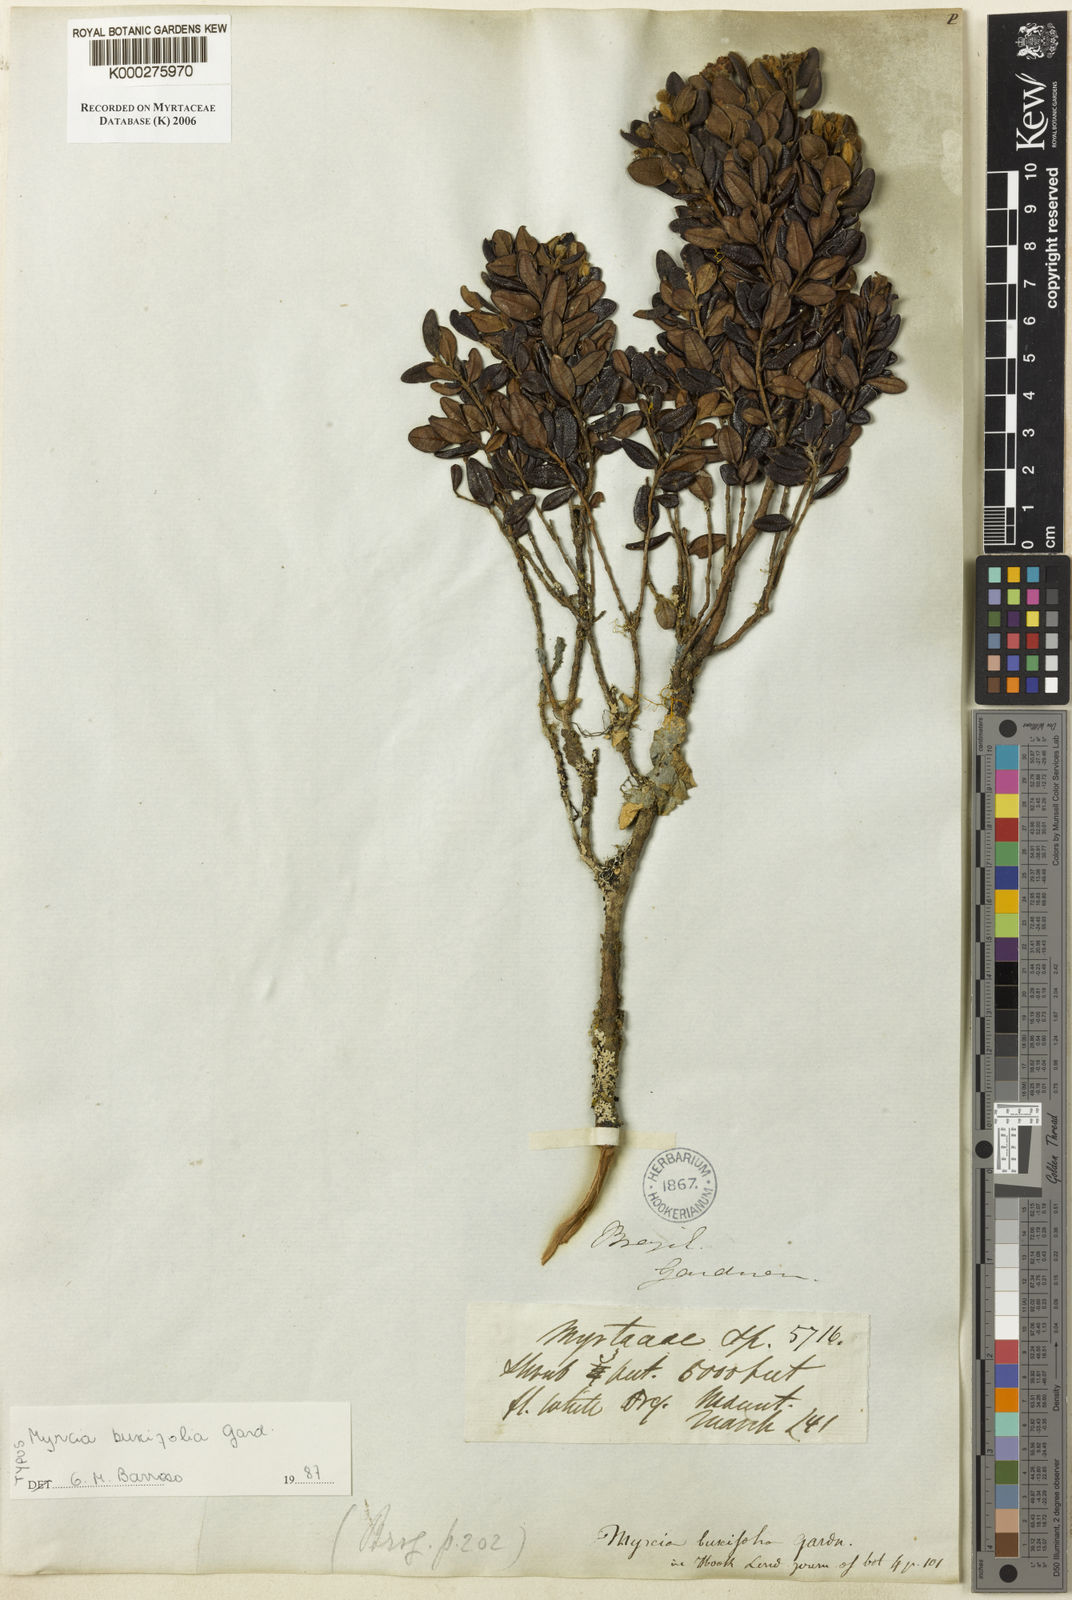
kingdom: Plantae
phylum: Tracheophyta
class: Magnoliopsida
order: Myrtales
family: Myrtaceae
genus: Myrcia
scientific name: Myrcia montana
